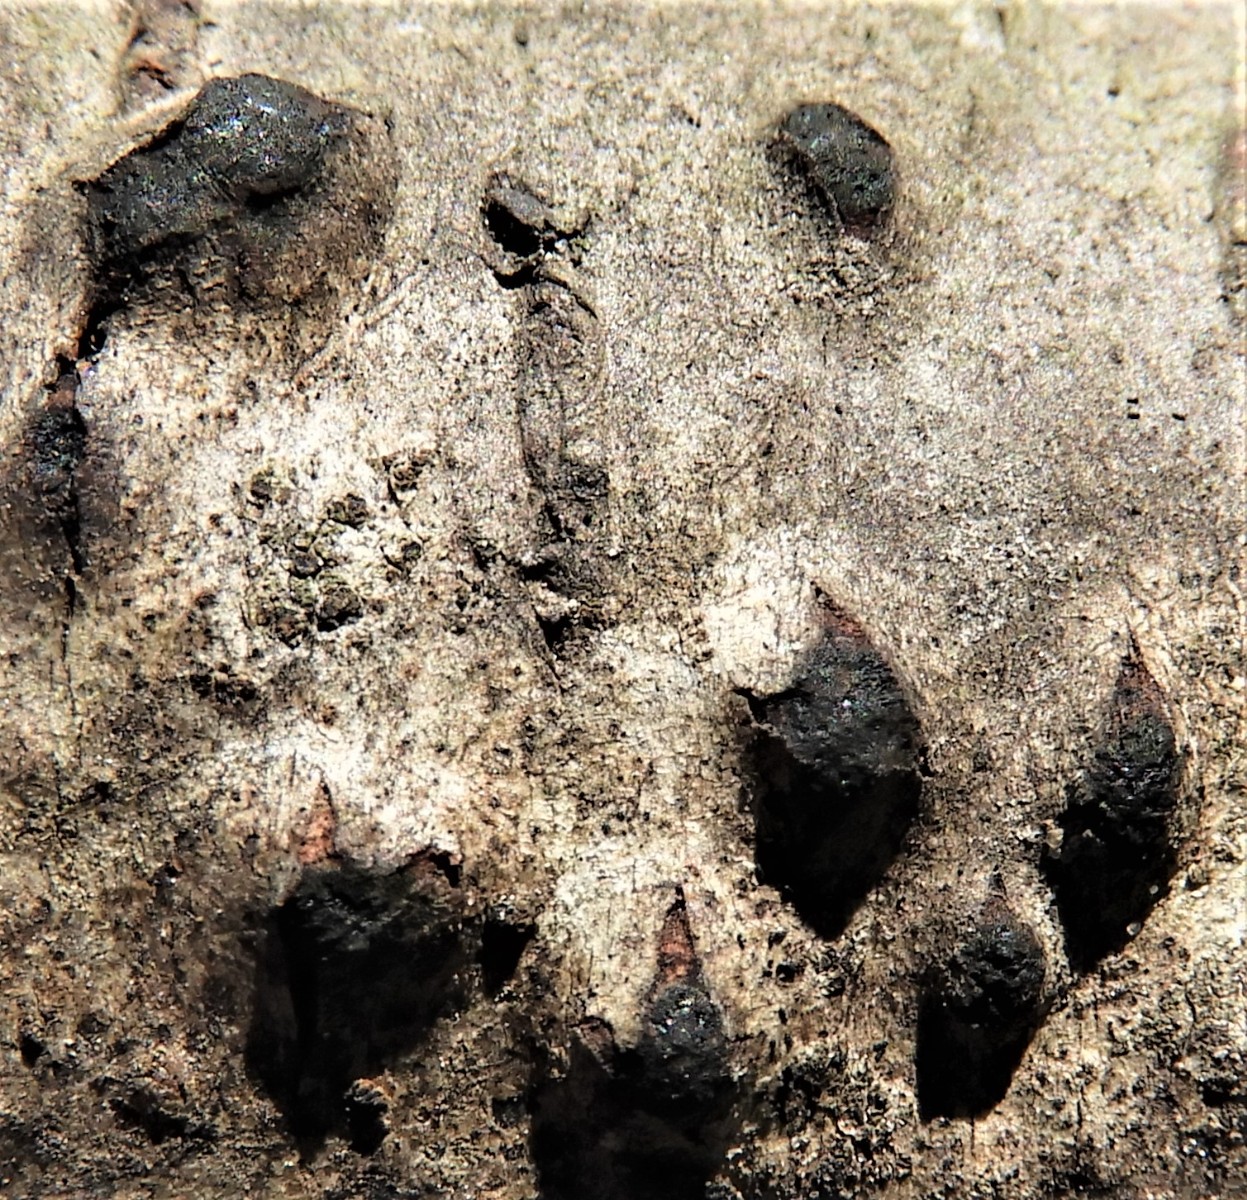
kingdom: Fungi
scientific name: Fungi
